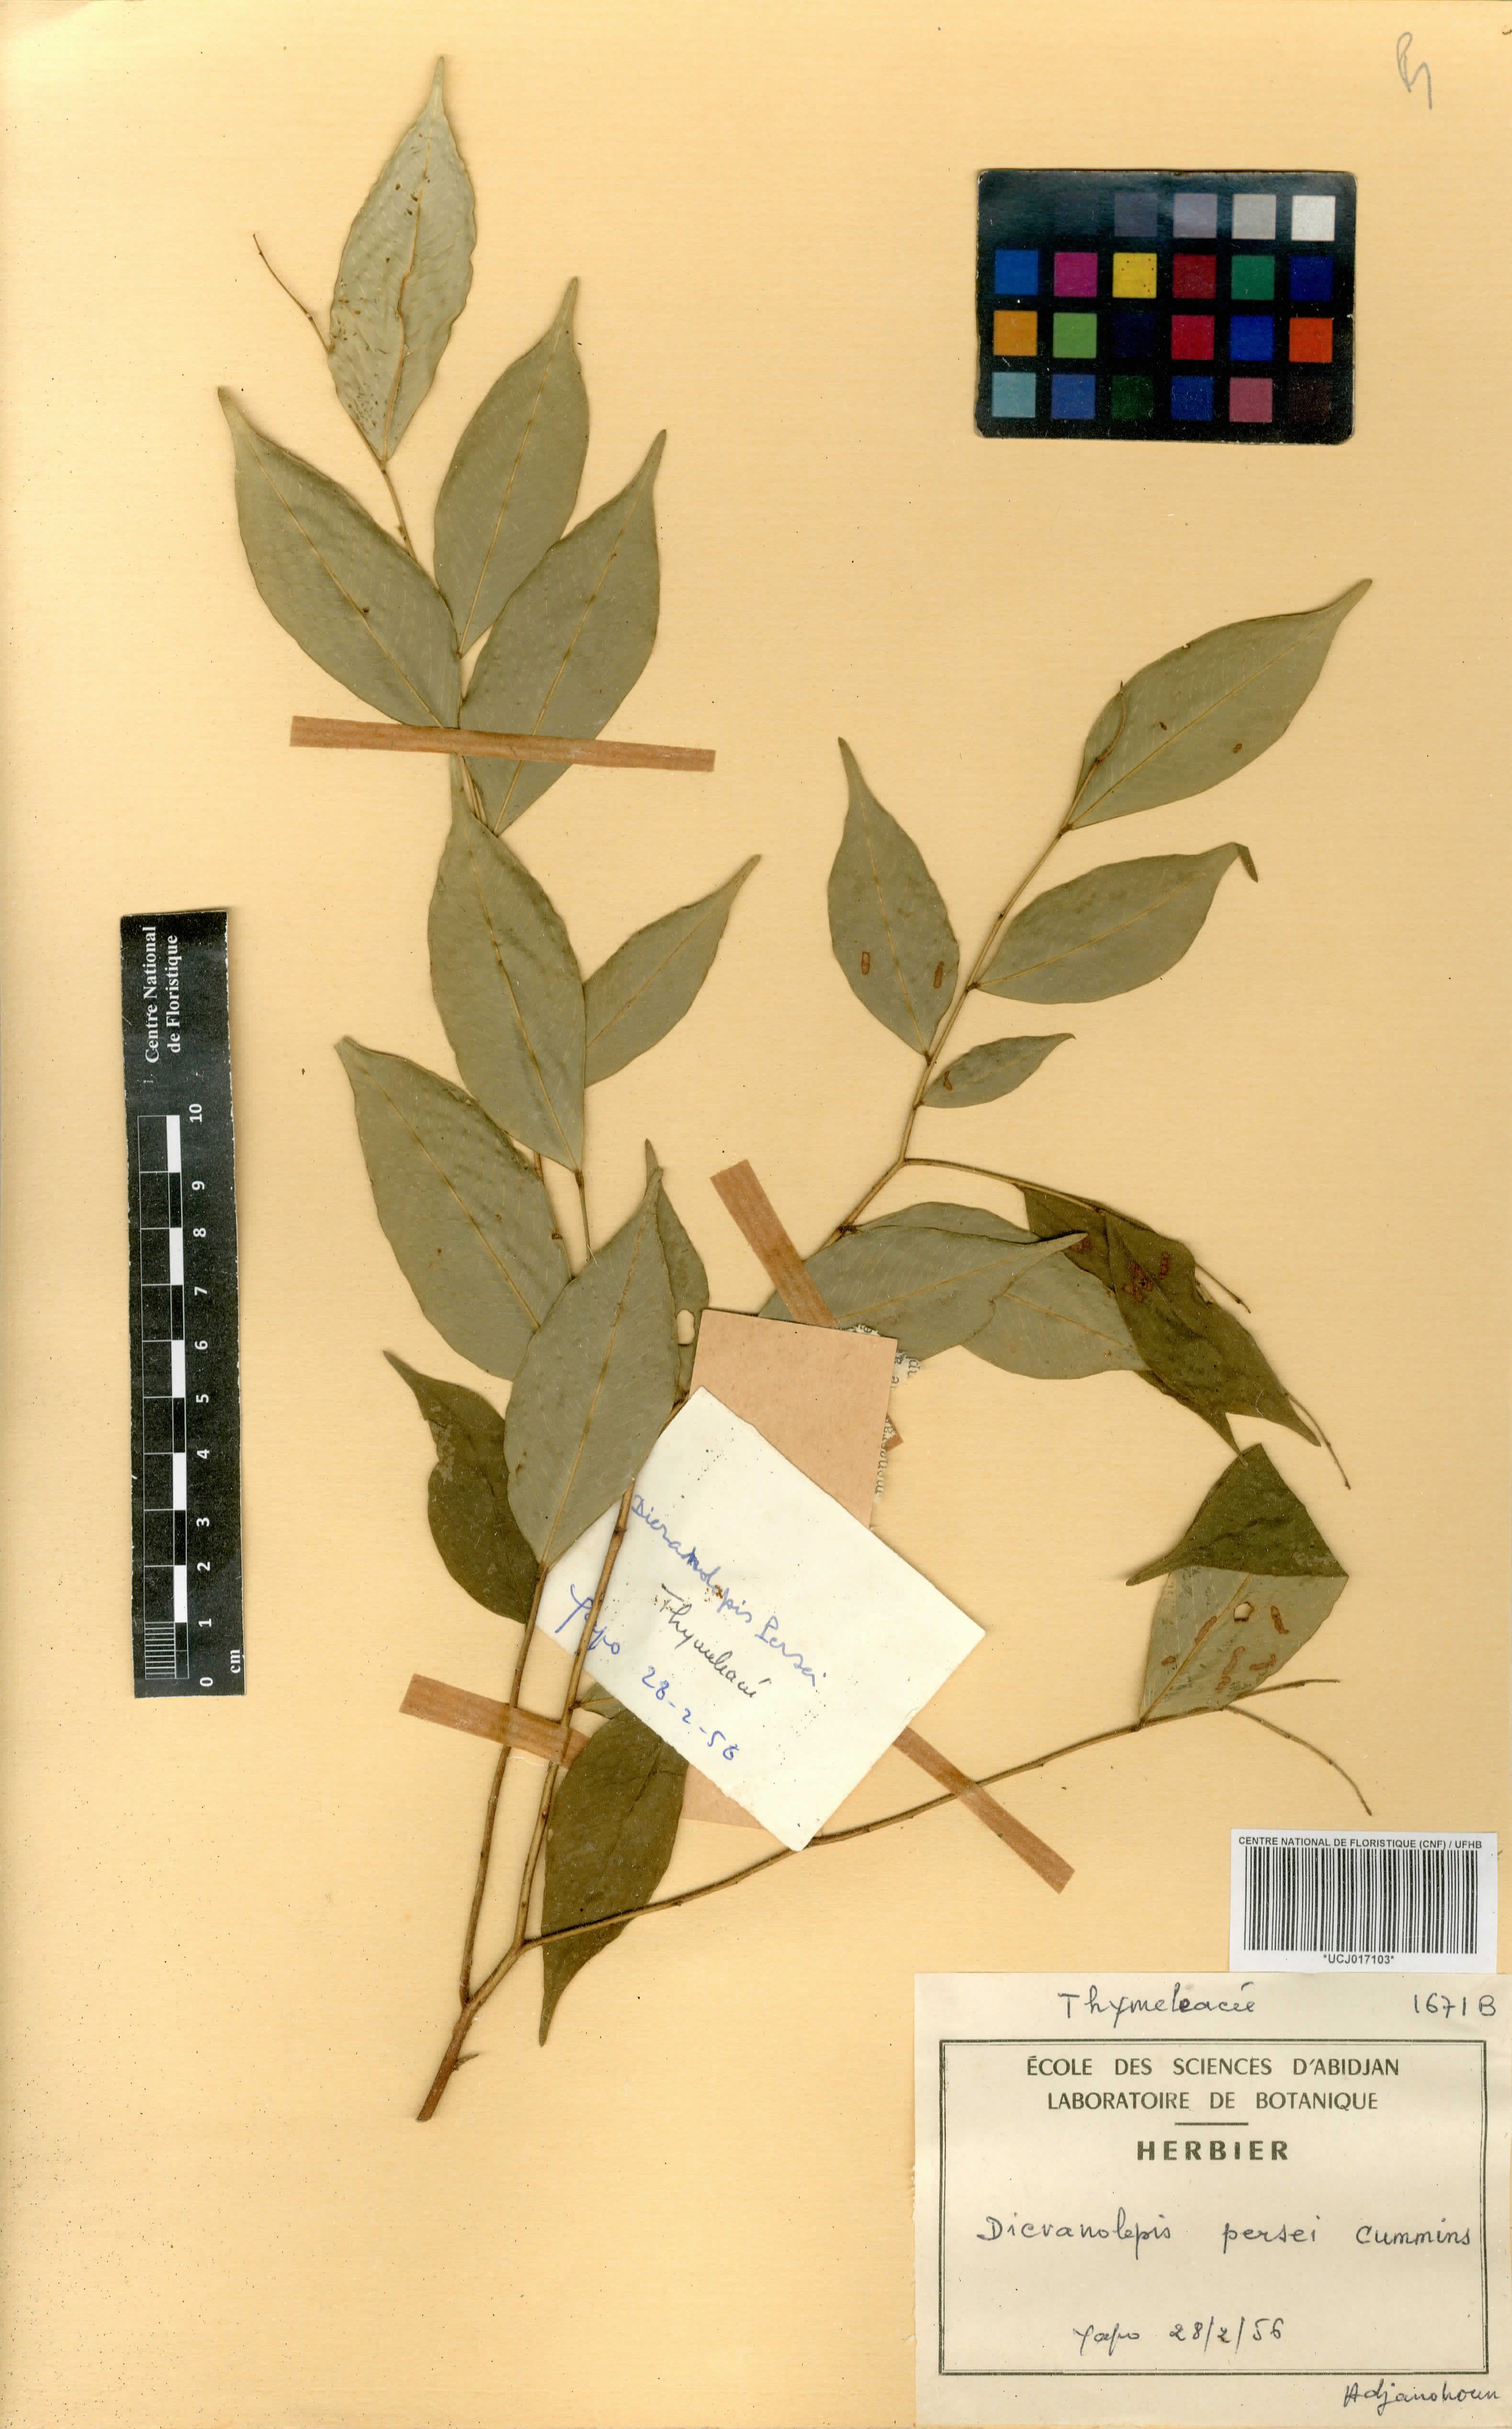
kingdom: Plantae
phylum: Tracheophyta
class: Magnoliopsida
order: Malvales
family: Thymelaeaceae
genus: Dicranolepis
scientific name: Dicranolepis persei
